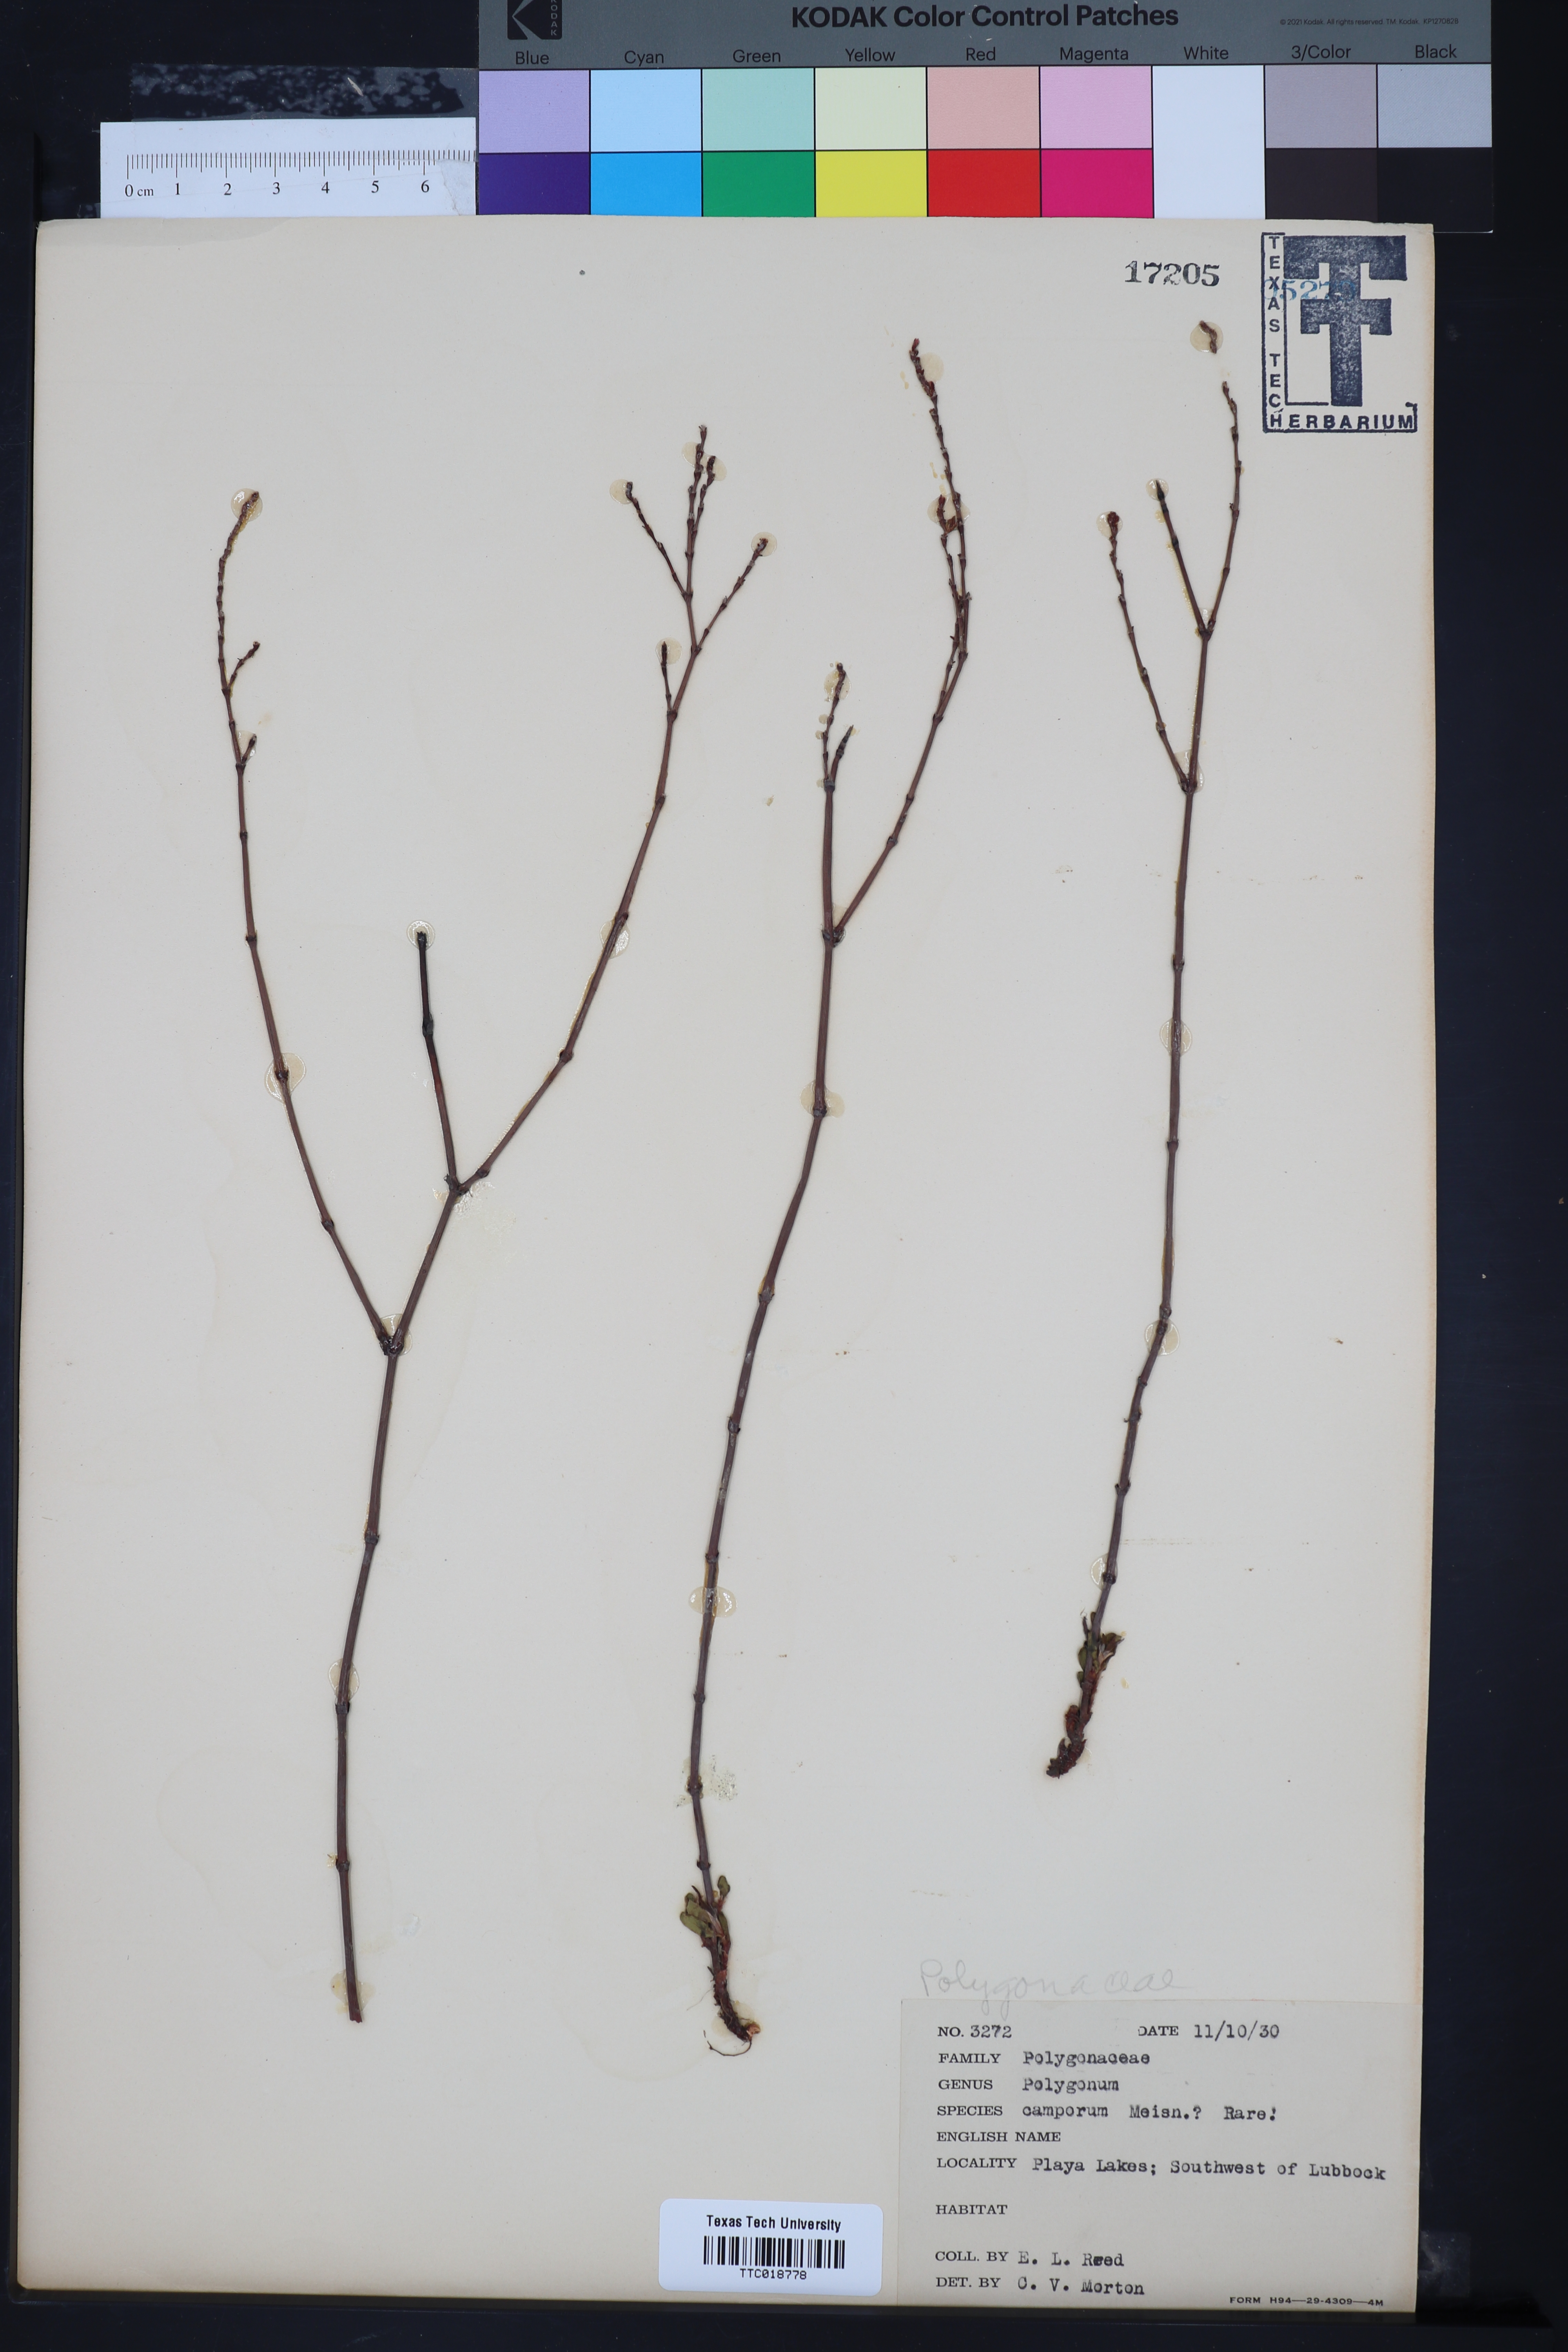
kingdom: Plantae
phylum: Tracheophyta
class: Magnoliopsida
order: Caryophyllales
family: Polygonaceae
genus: Polygonum
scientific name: Polygonum brasiliense
